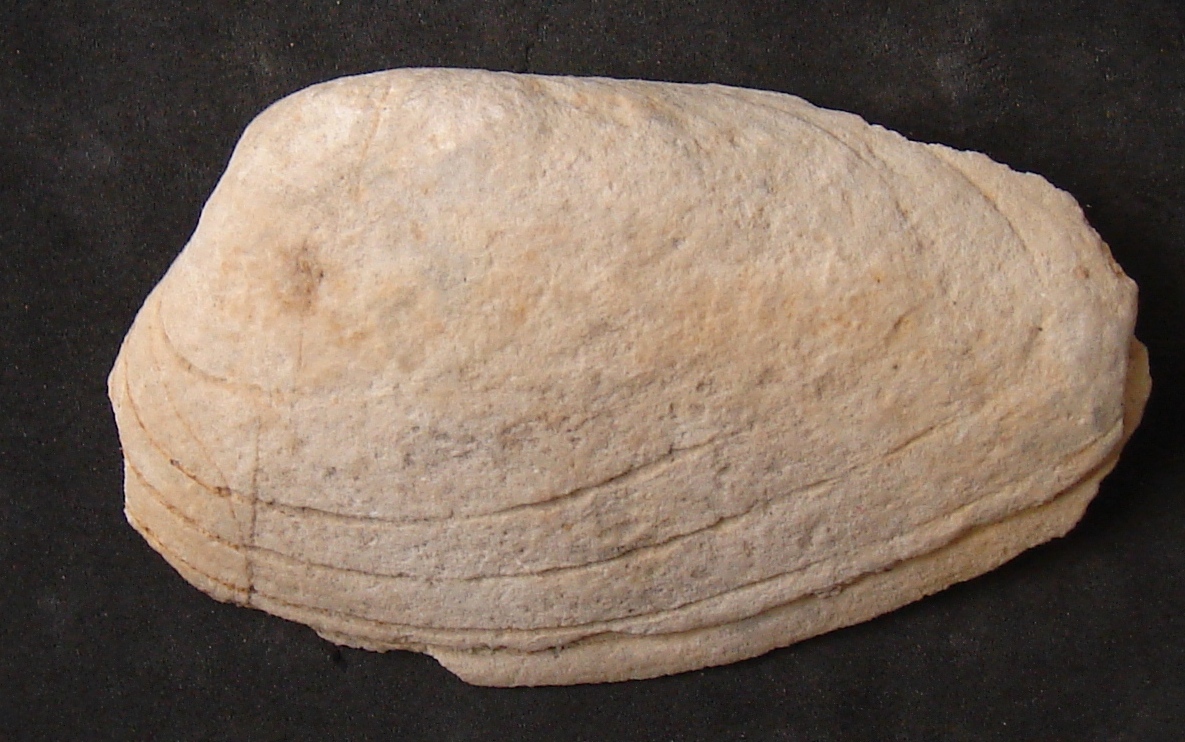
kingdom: Animalia
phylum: Mollusca
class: Bivalvia
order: Carditida
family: Cardiniidae
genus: Cardinia
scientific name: Cardinia
